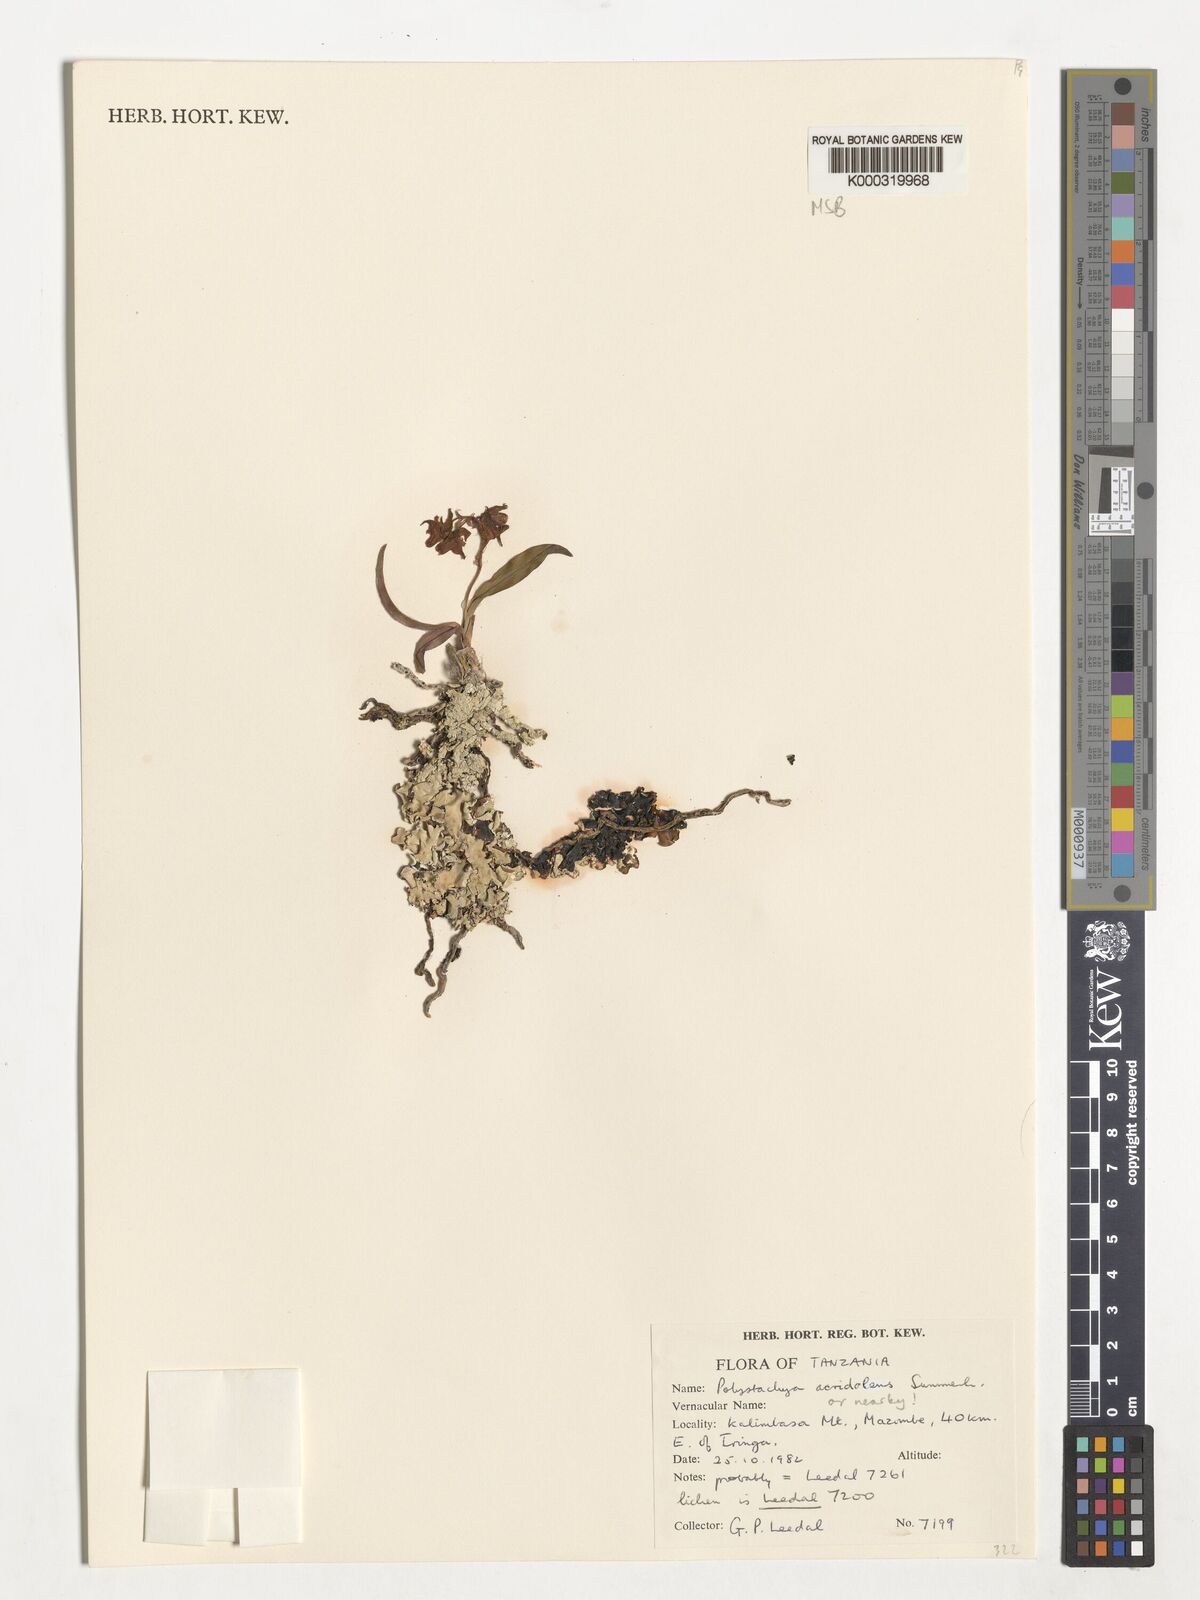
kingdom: Plantae
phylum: Tracheophyta
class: Liliopsida
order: Asparagales
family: Orchidaceae
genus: Polystachya
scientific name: Polystachya acridolens
